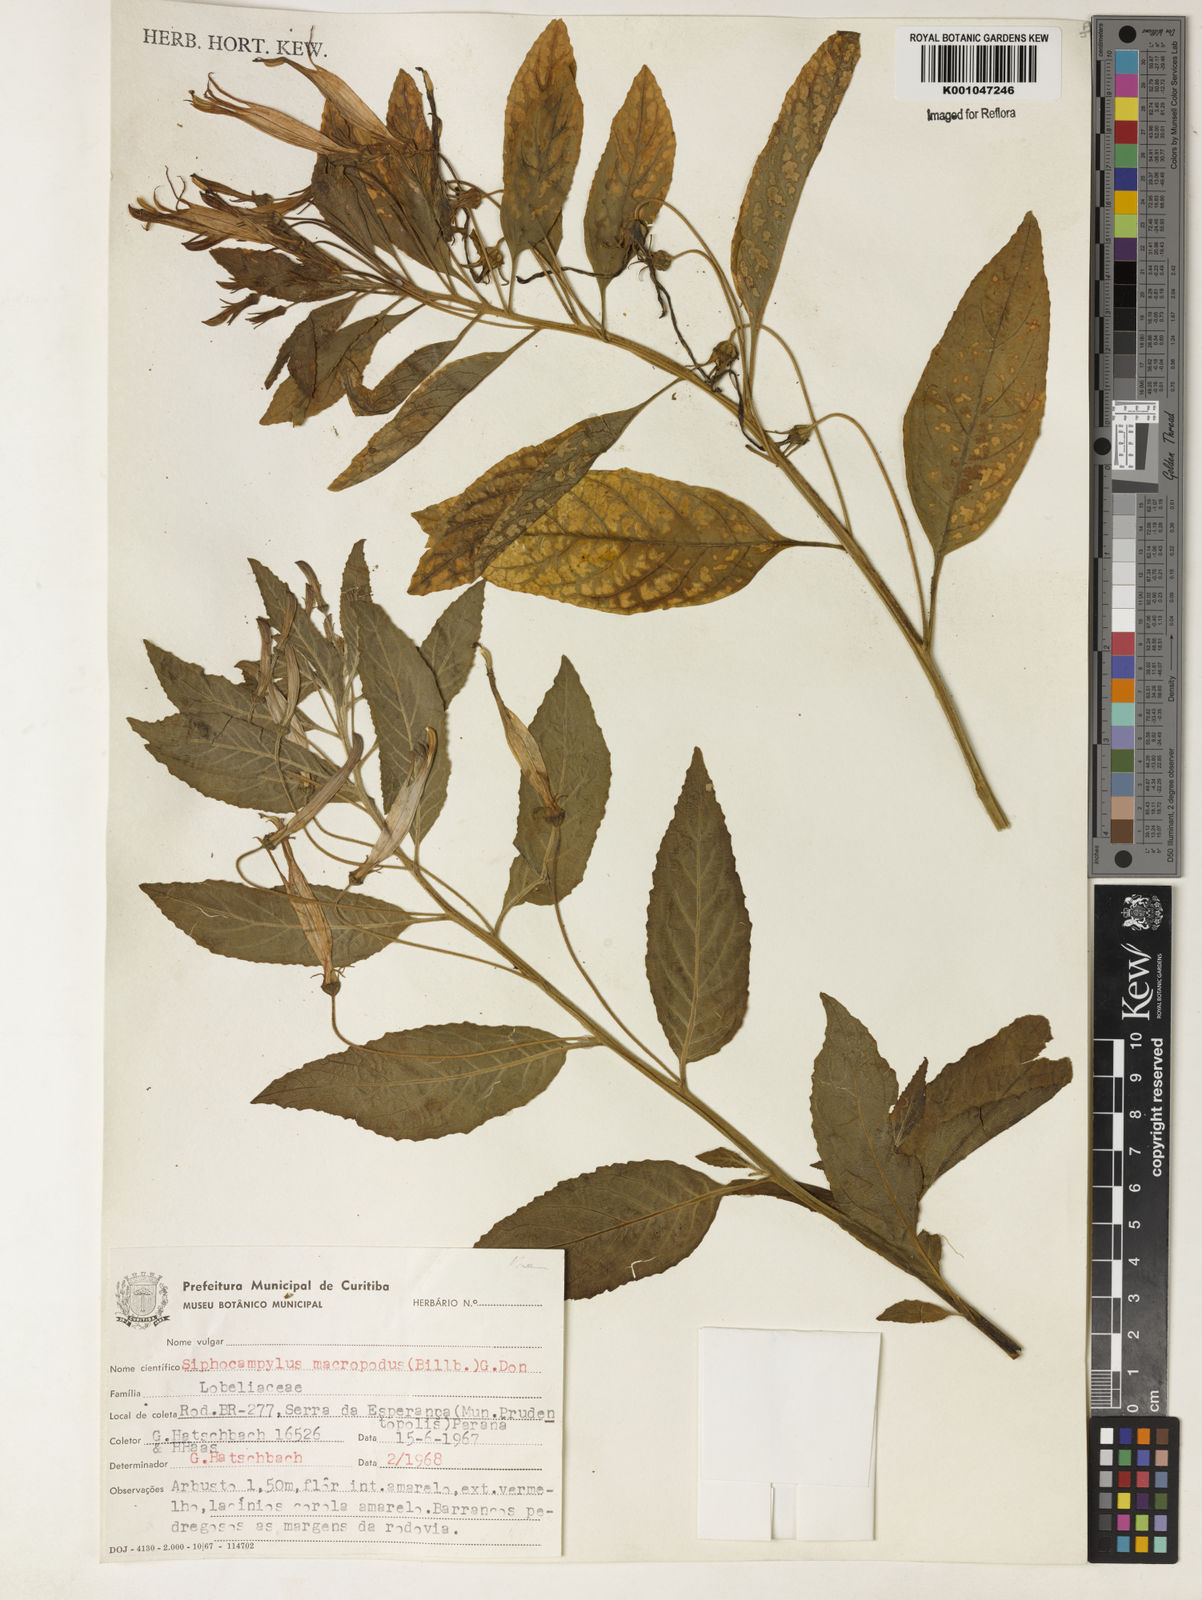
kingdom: Plantae
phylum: Tracheophyta
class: Magnoliopsida
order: Asterales
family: Campanulaceae
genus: Siphocampylus
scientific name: Siphocampylus macropodus
